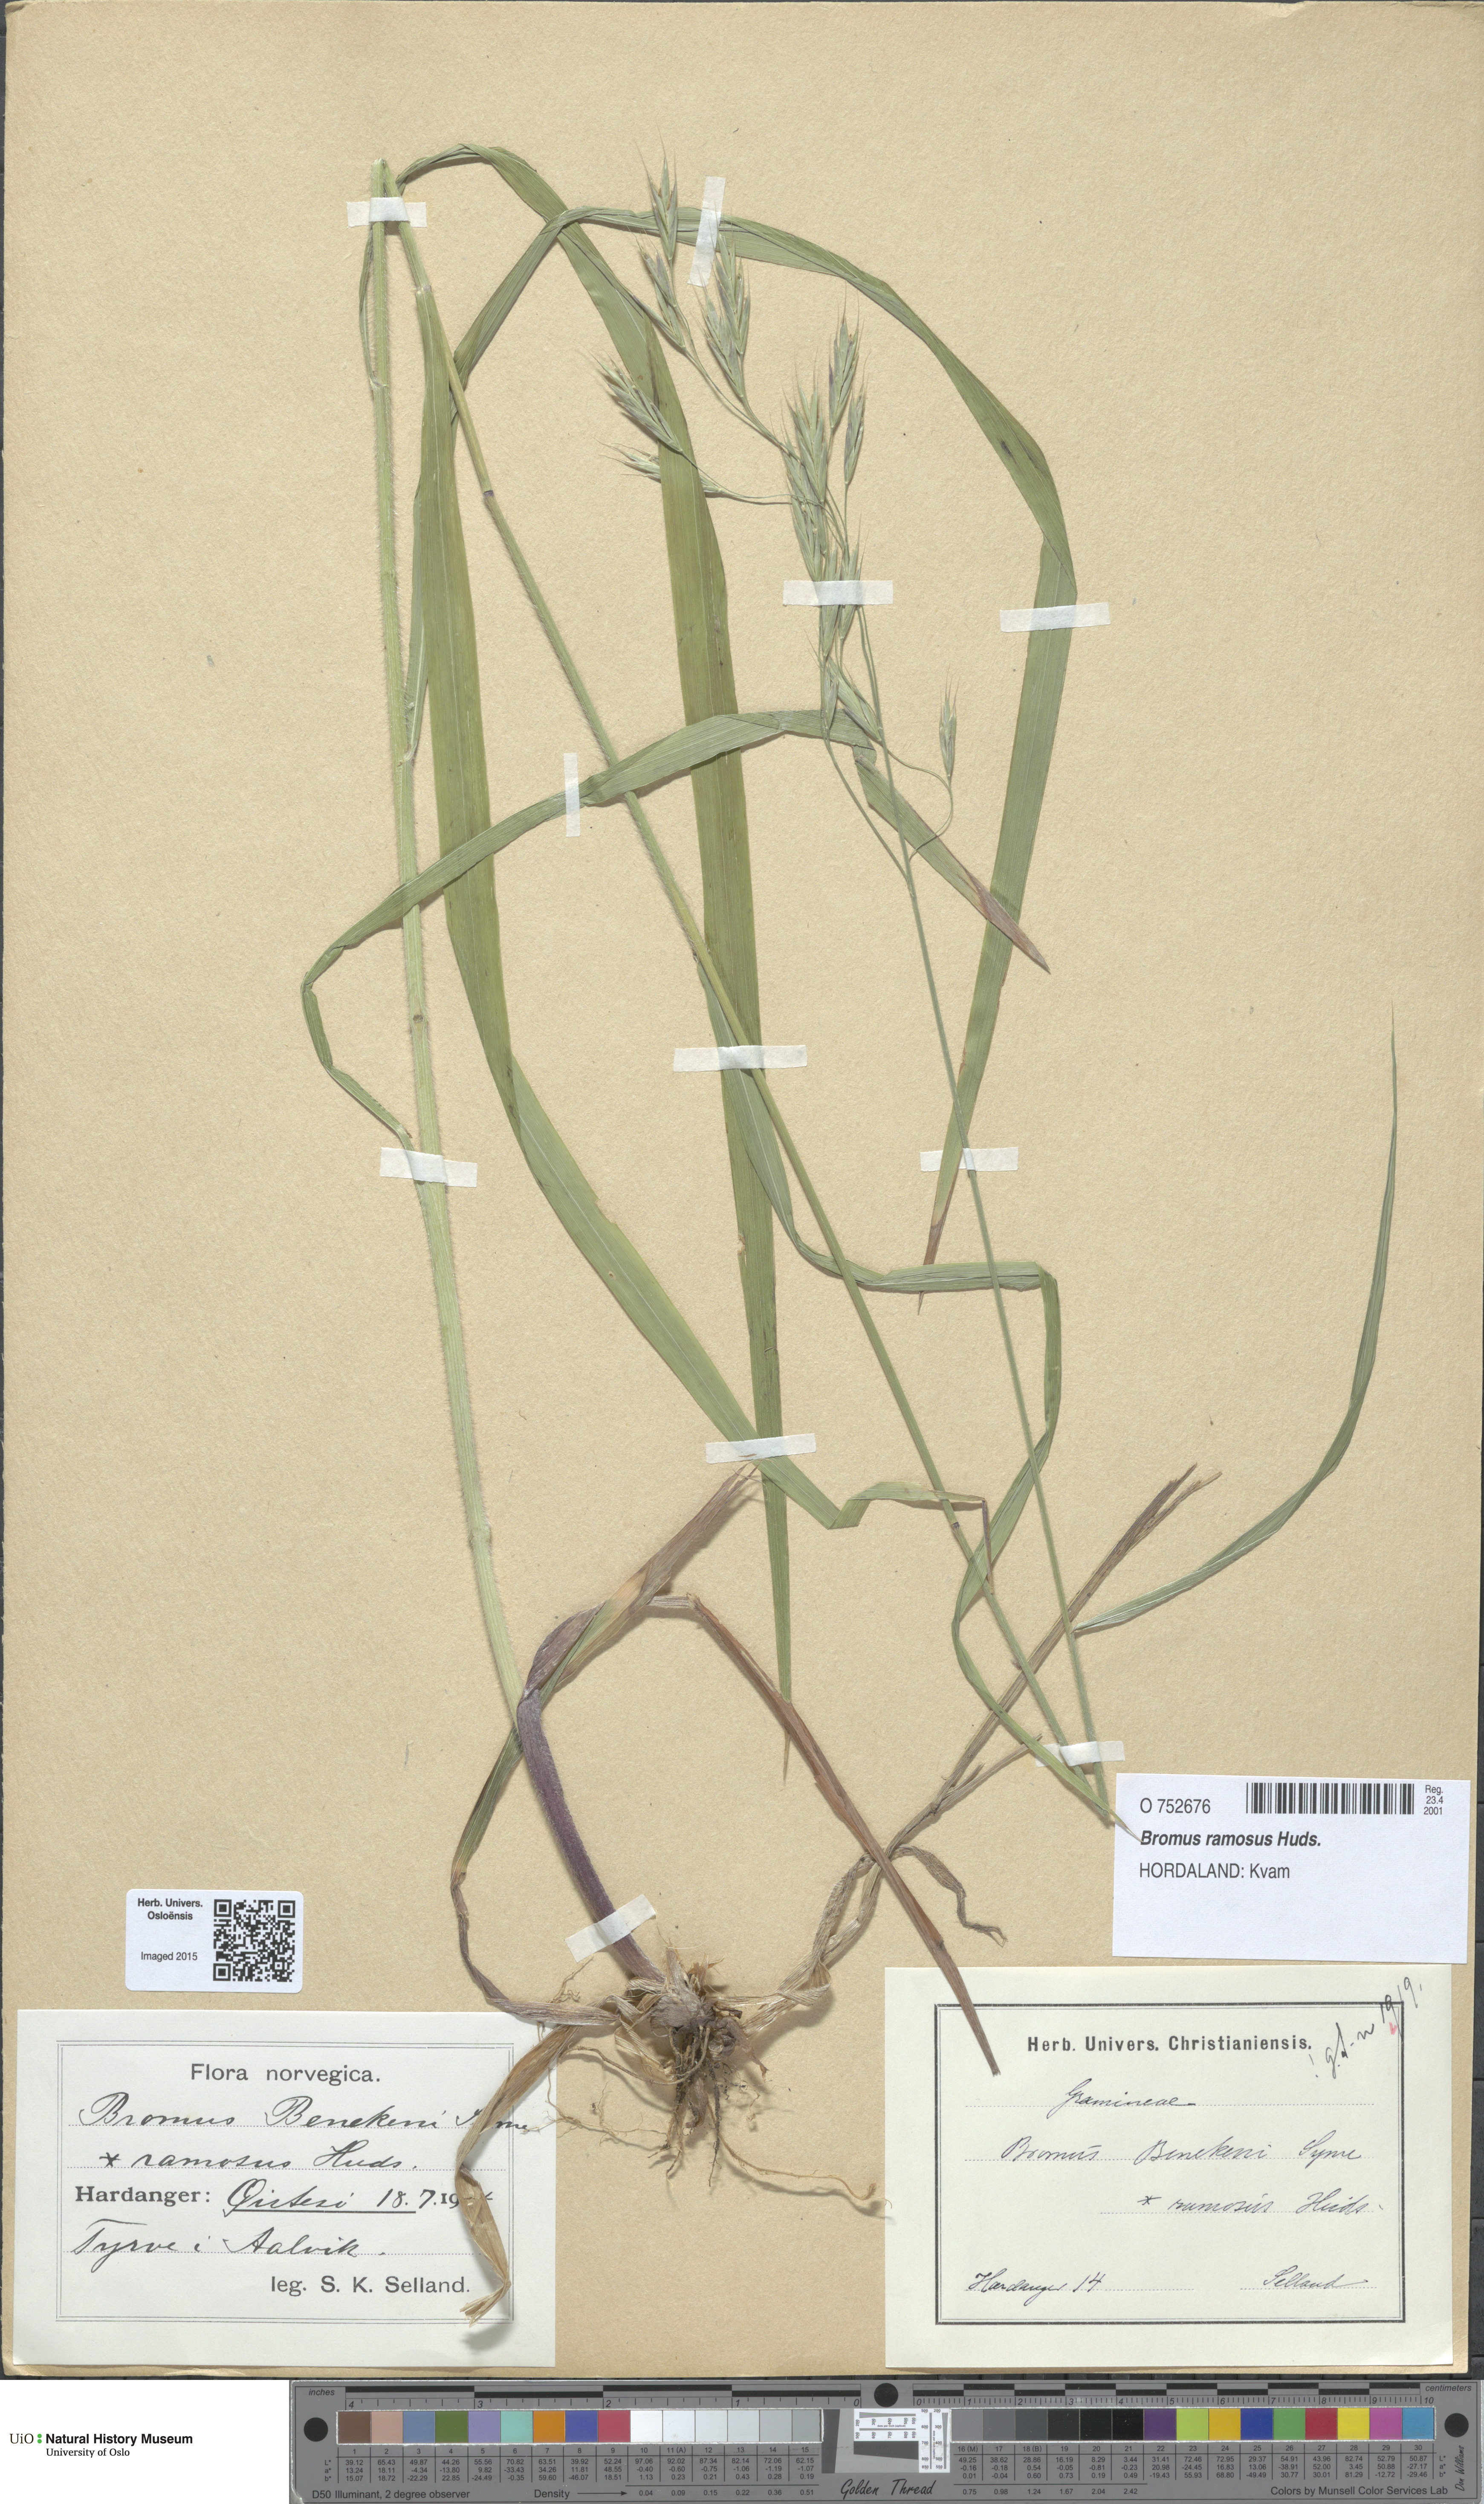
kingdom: Plantae
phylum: Tracheophyta
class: Liliopsida
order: Poales
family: Poaceae
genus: Bromus
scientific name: Bromus ramosus
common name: Hairy brome
